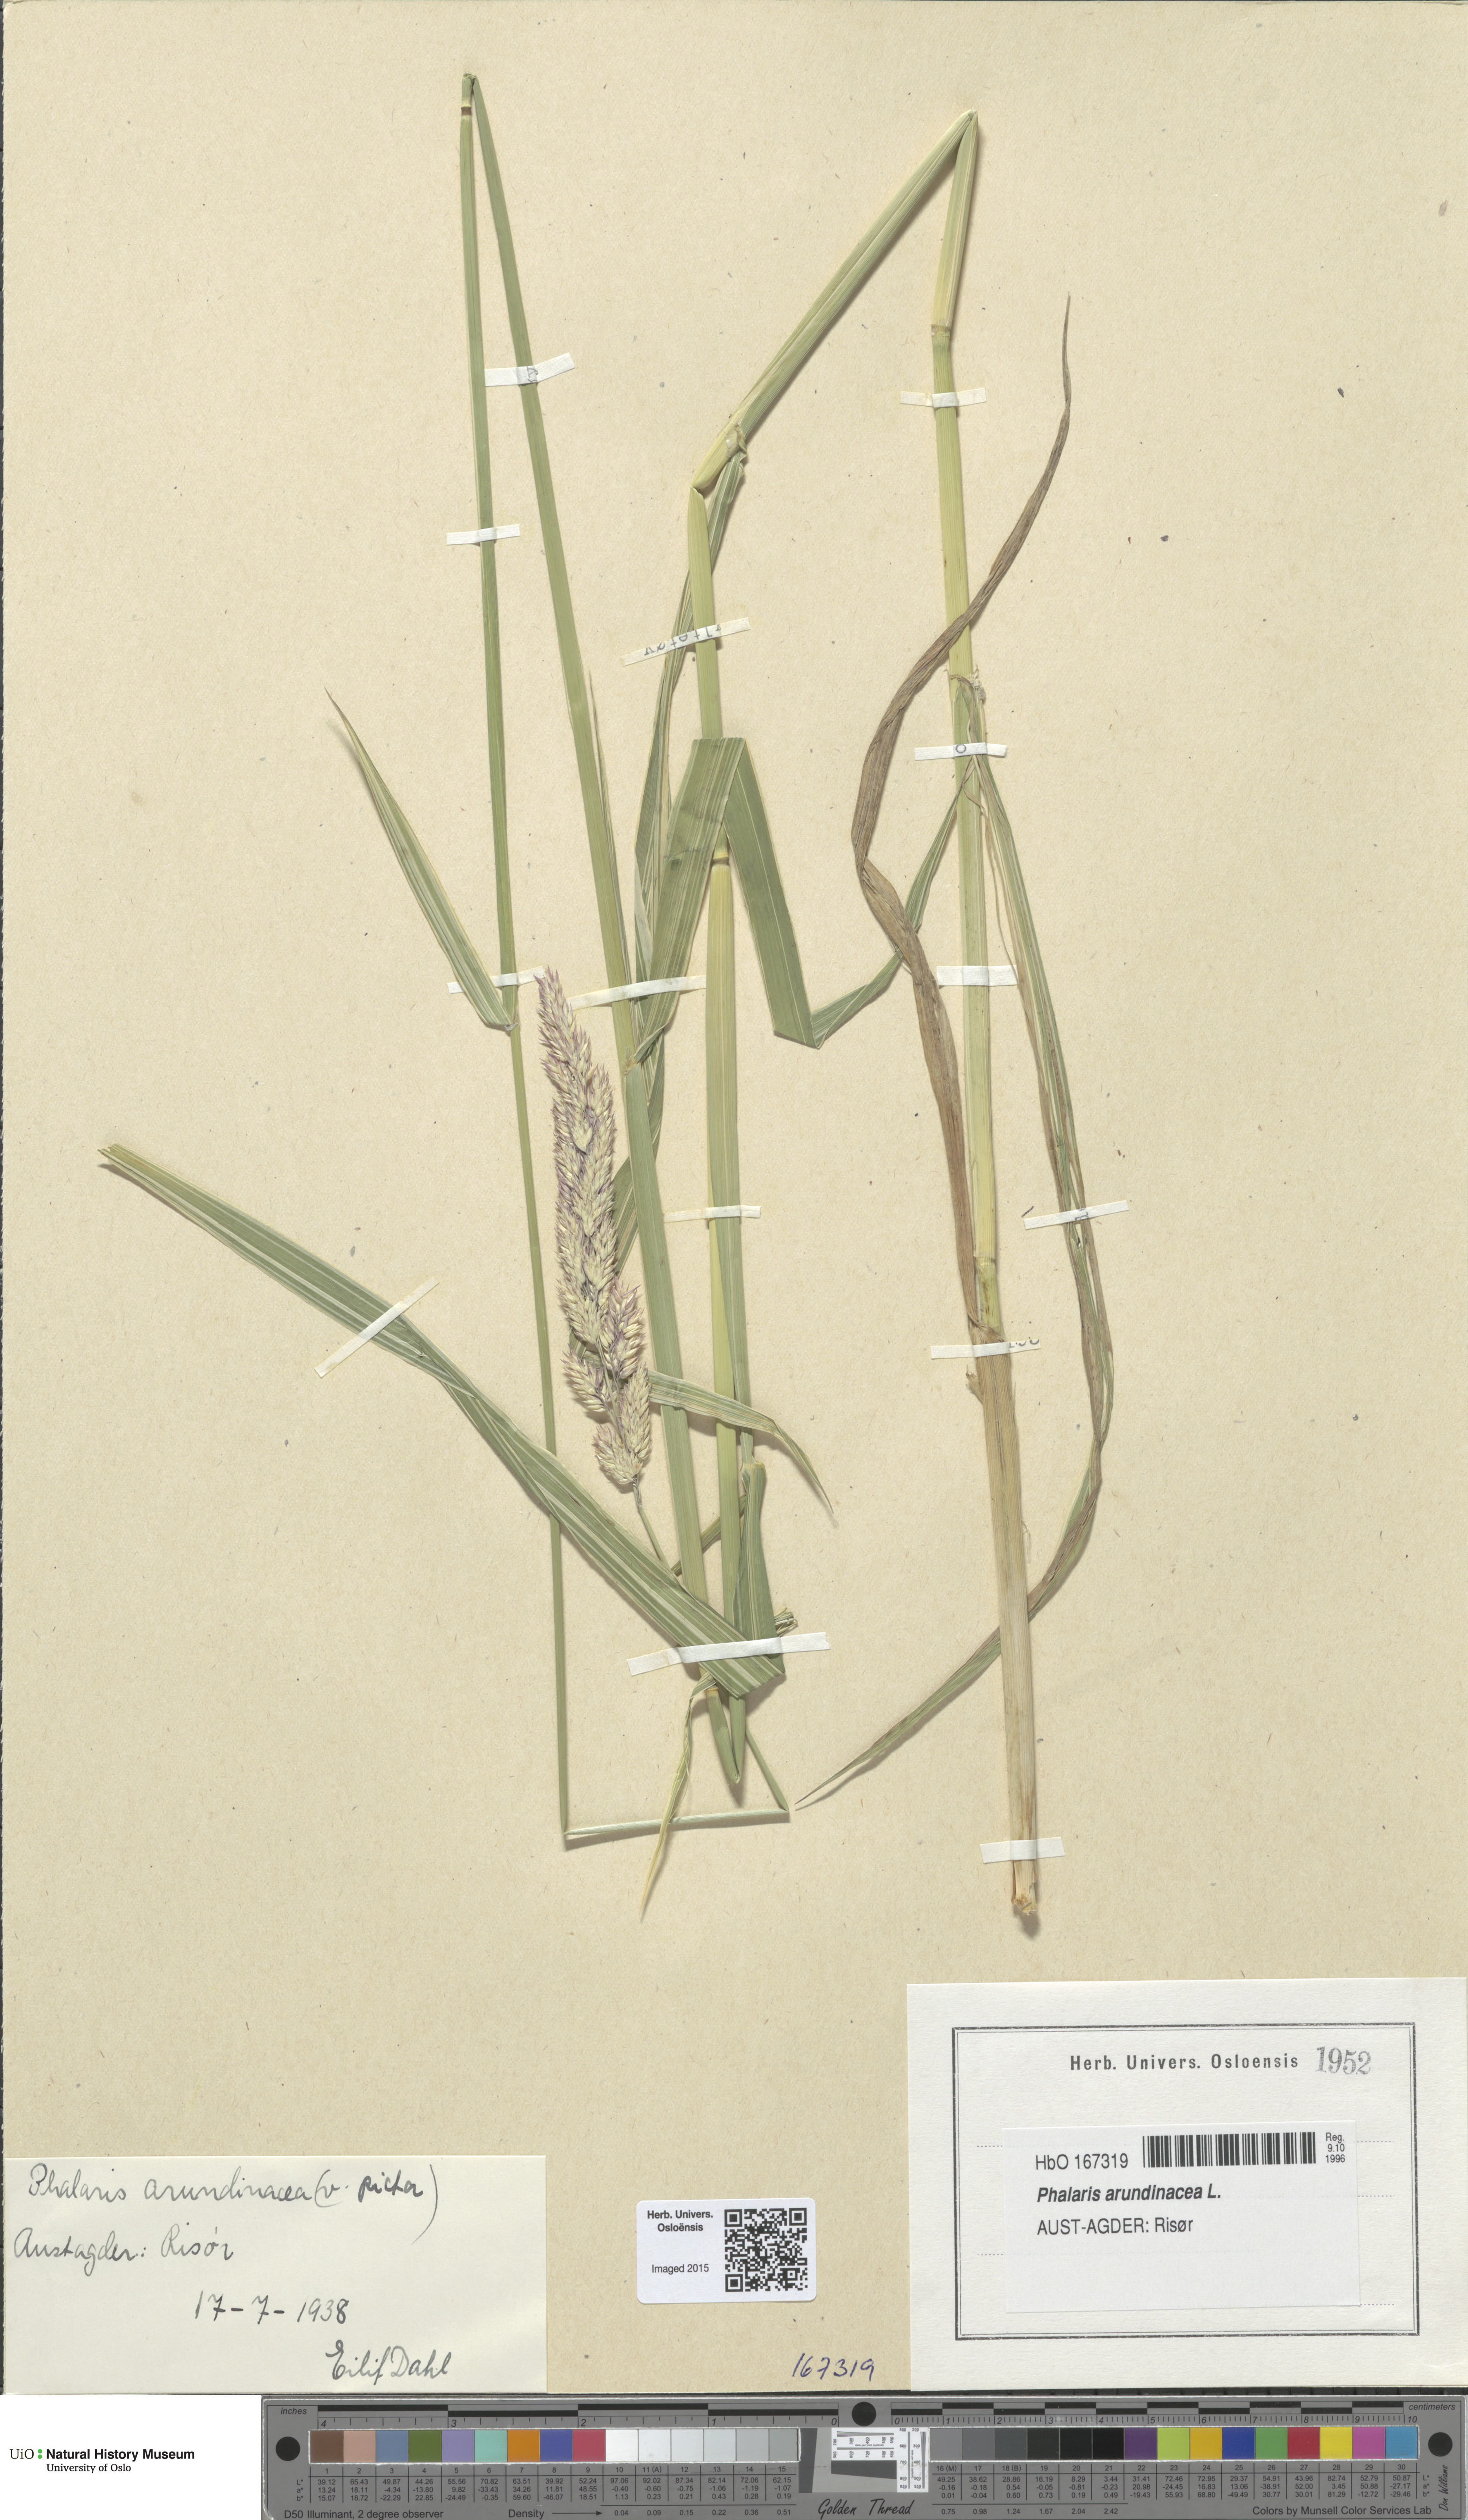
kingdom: Plantae
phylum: Tracheophyta
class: Liliopsida
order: Poales
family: Poaceae
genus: Phalaris
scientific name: Phalaris arundinacea
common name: Reed canary-grass
